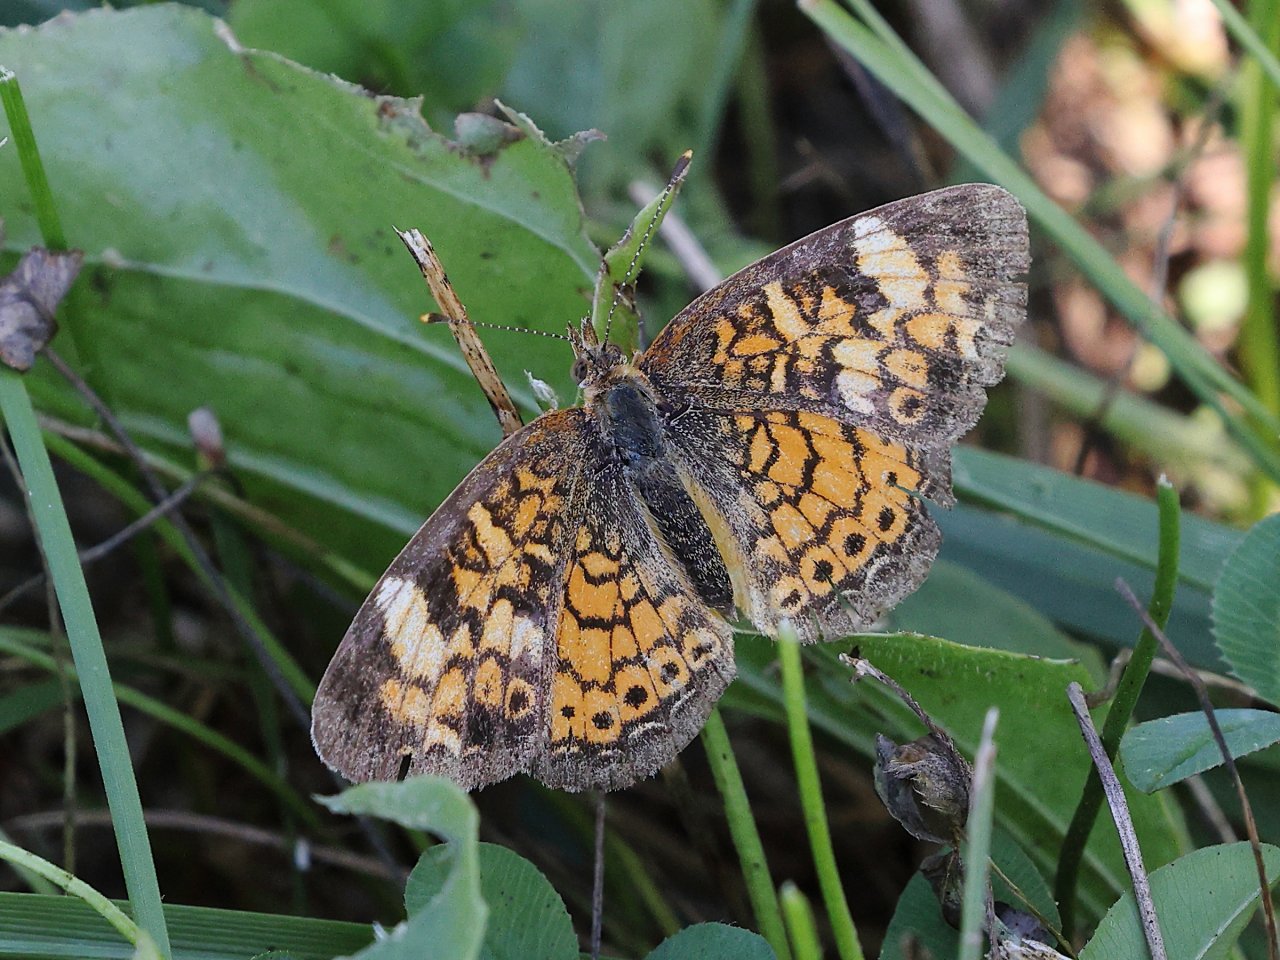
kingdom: Animalia
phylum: Arthropoda
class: Insecta
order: Lepidoptera
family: Nymphalidae
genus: Phyciodes
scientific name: Phyciodes
